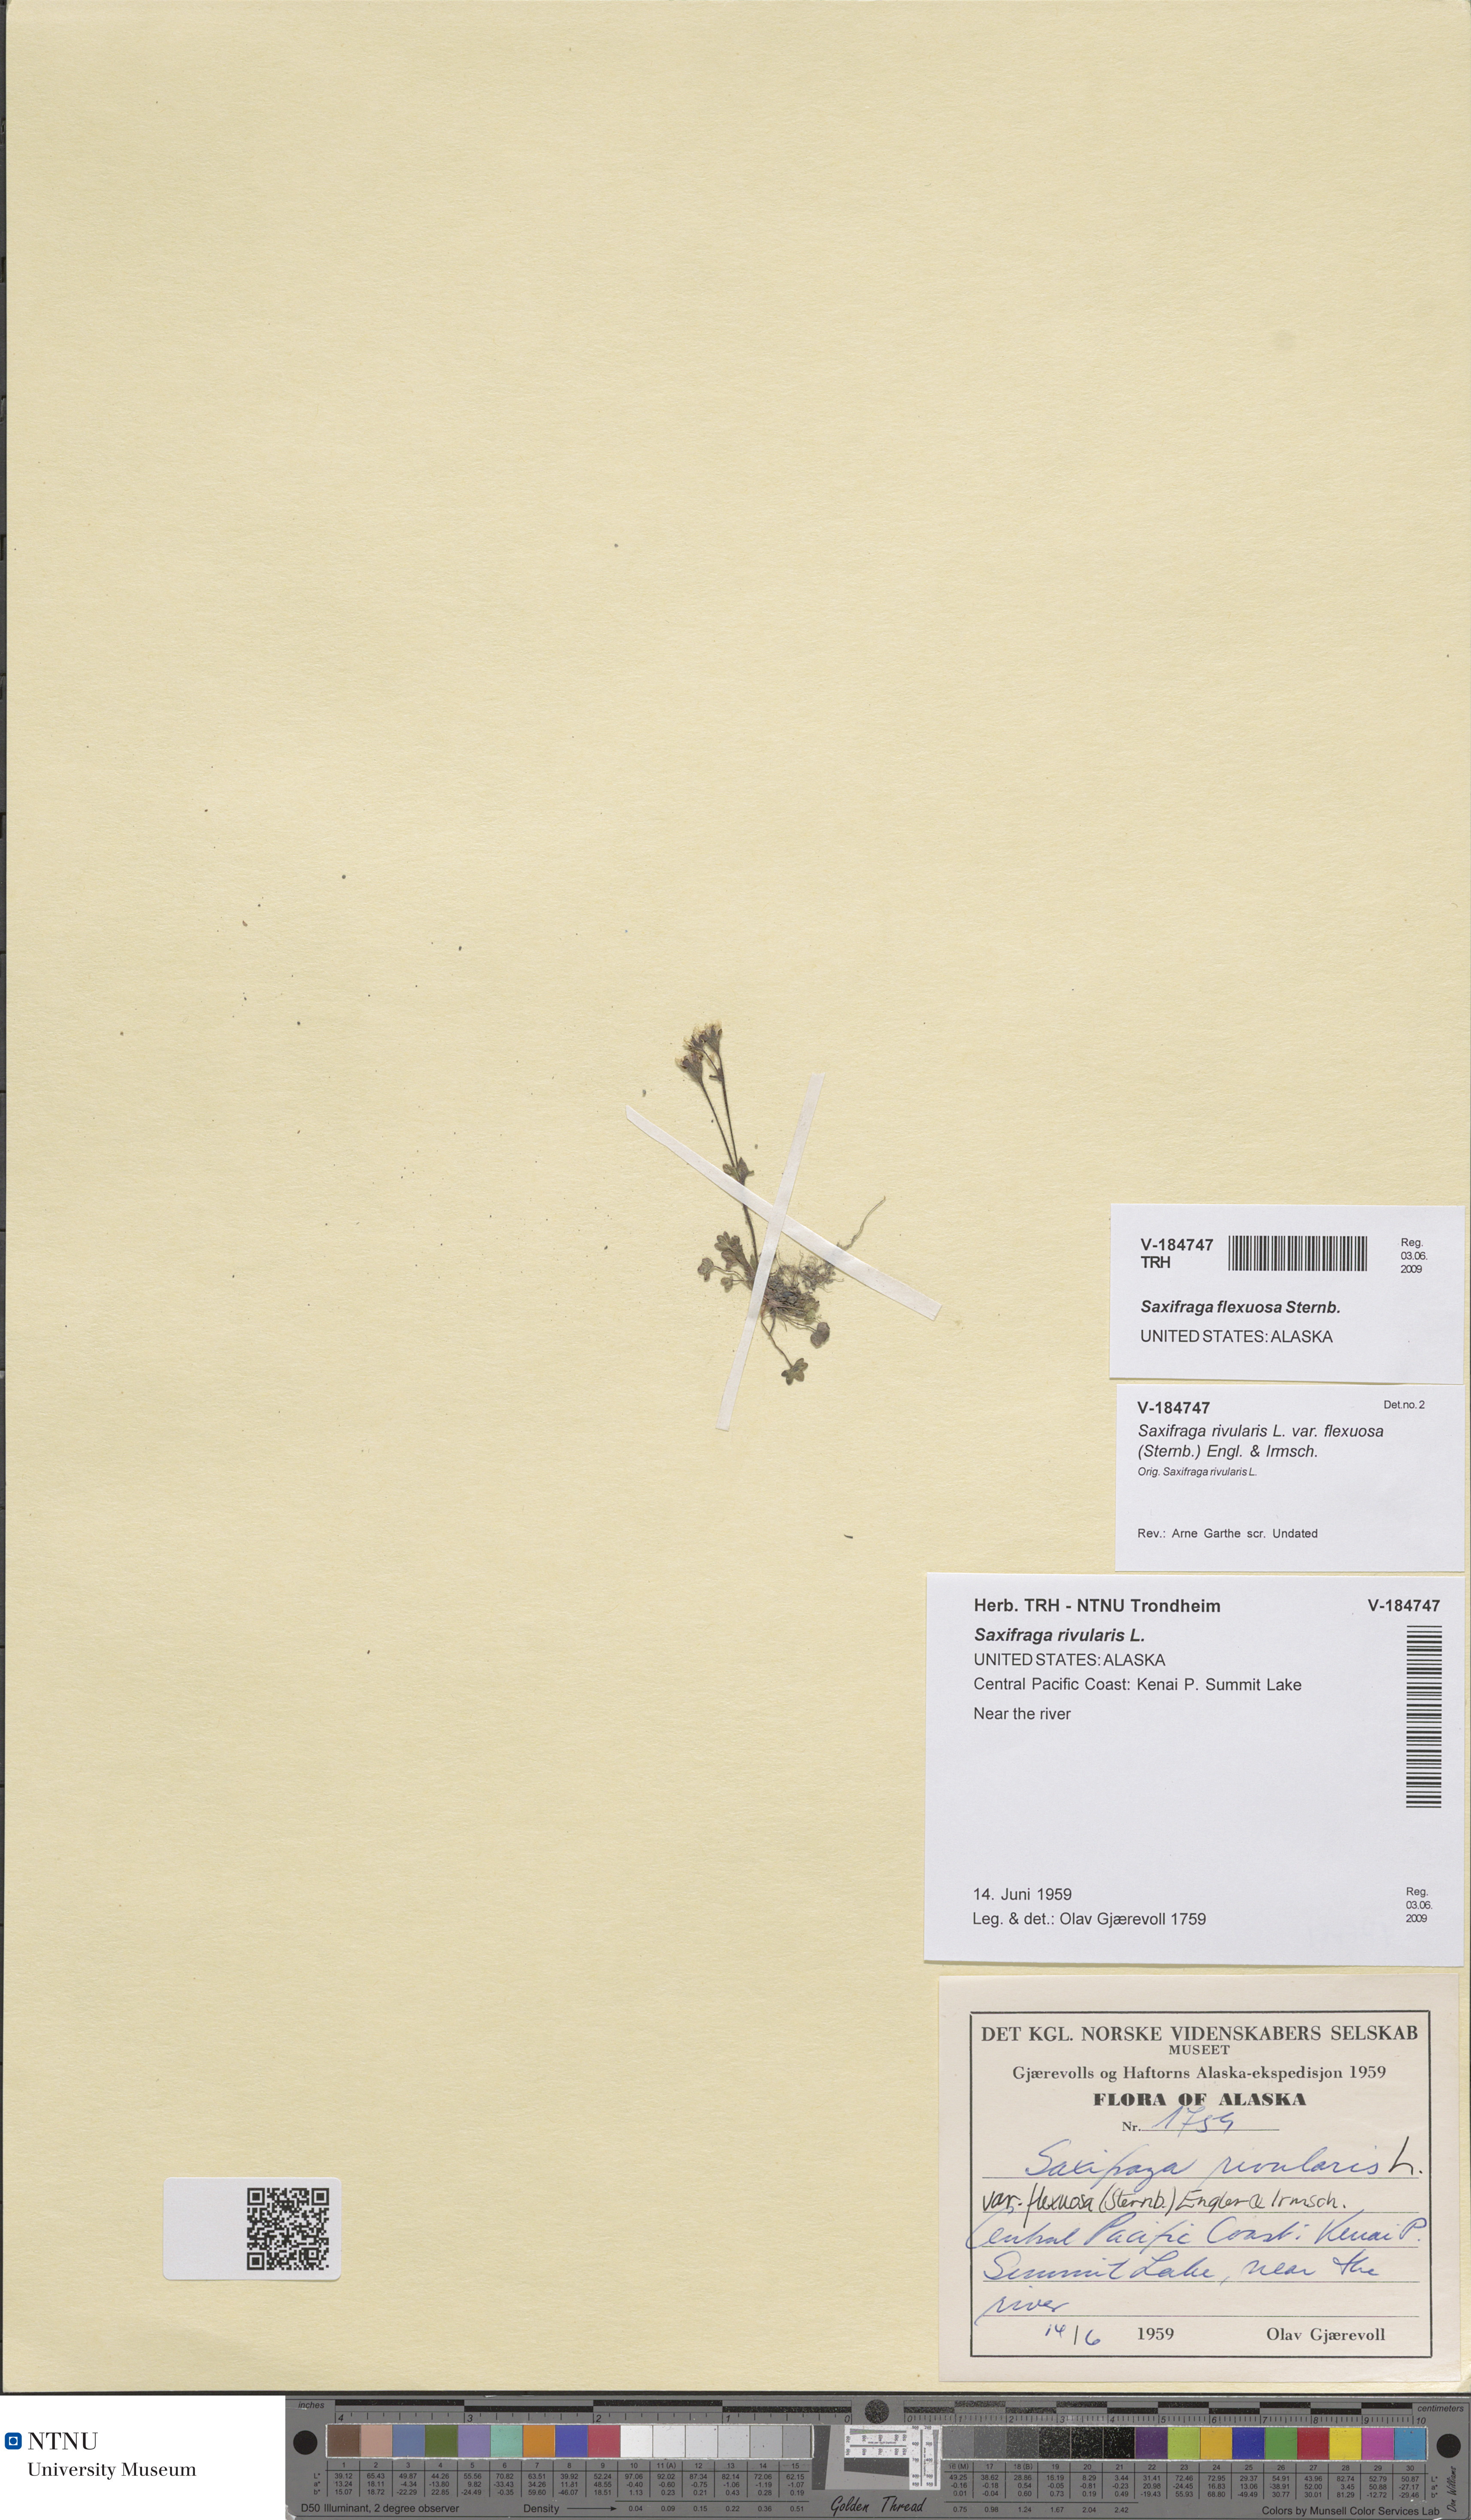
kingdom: Plantae
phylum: Tracheophyta
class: Magnoliopsida
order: Saxifragales
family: Saxifragaceae
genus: Saxifraga
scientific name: Saxifraga hyperborea
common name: Arctic saxifrage
